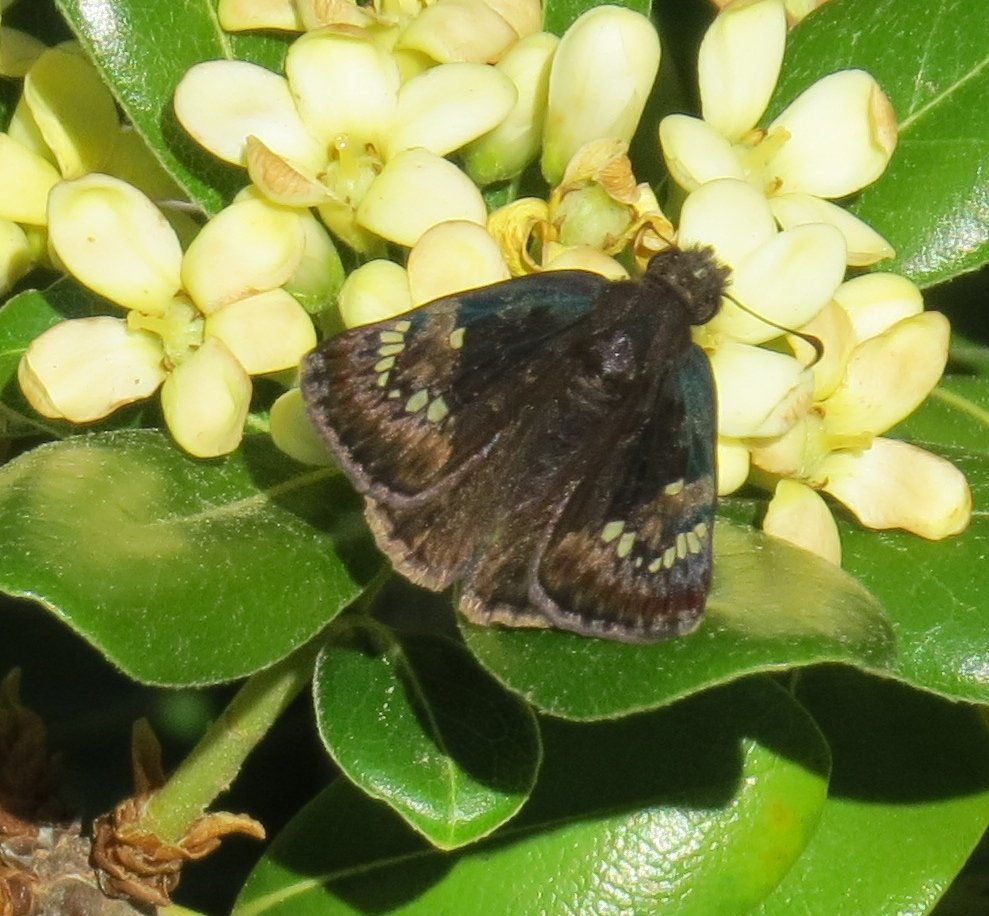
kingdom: Animalia
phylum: Arthropoda
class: Insecta
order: Lepidoptera
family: Hesperiidae
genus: Gesta
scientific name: Gesta
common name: Horace's Duskywing
